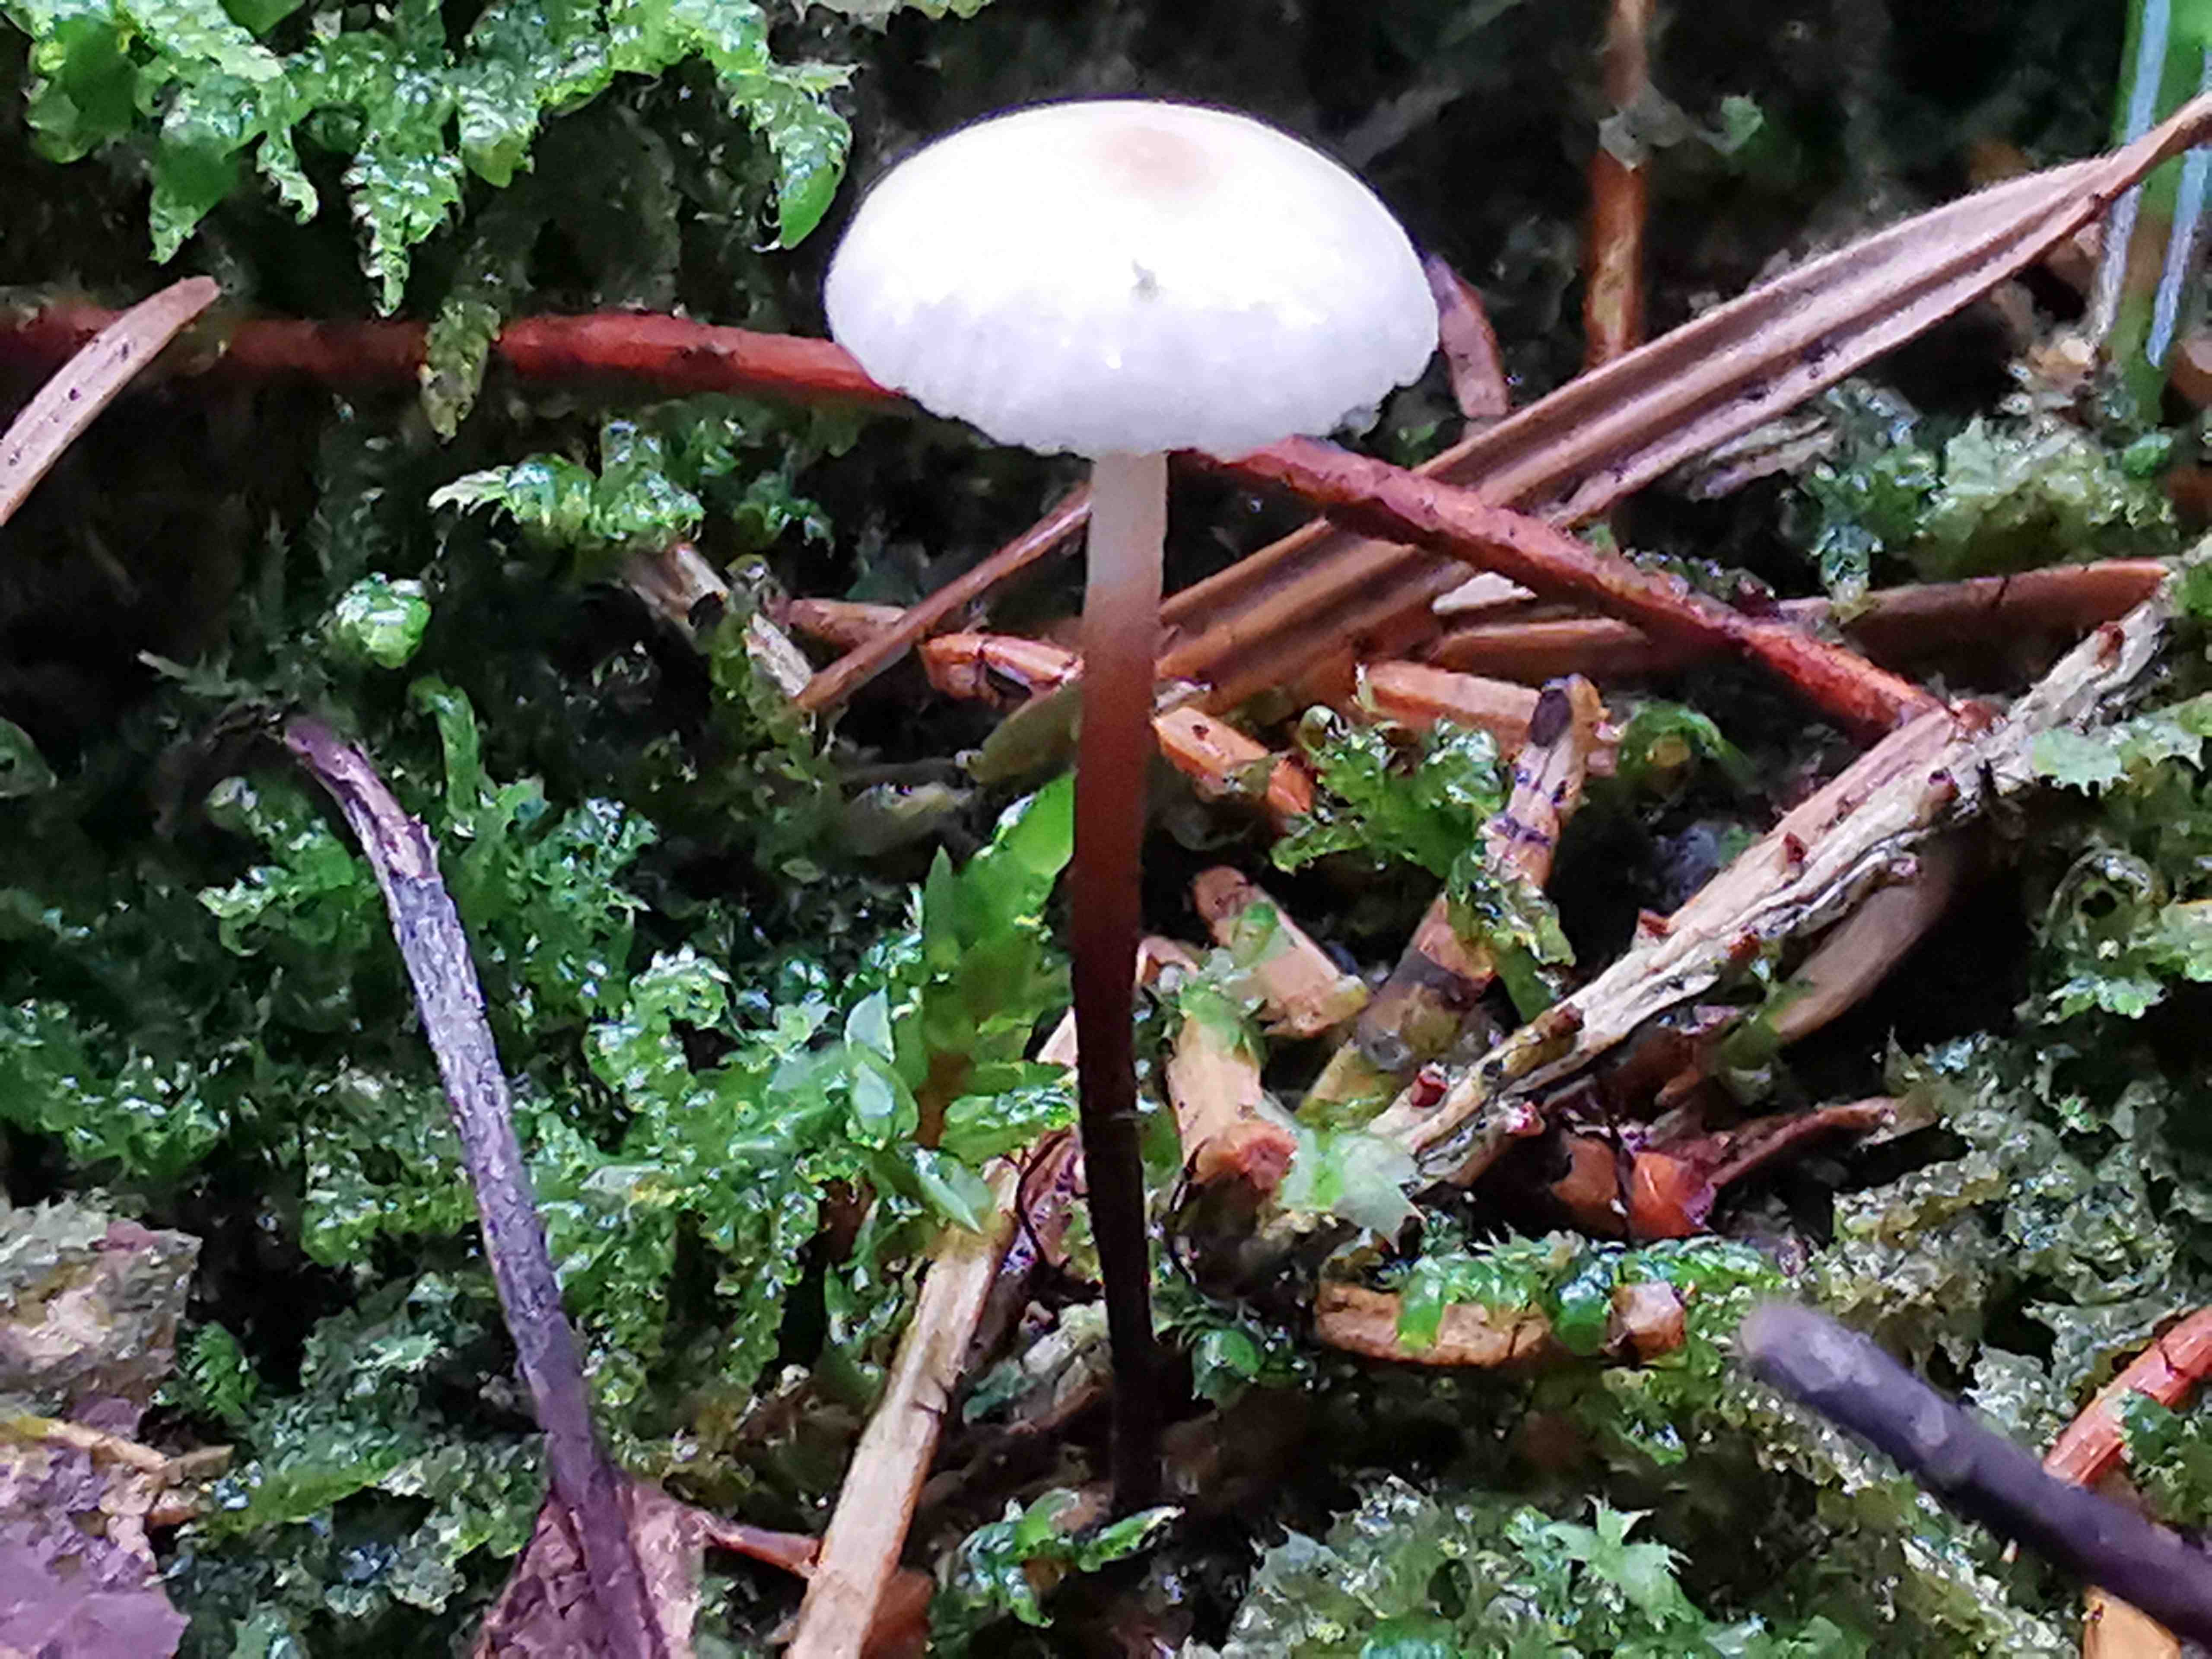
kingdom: Fungi
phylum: Basidiomycota
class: Agaricomycetes
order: Agaricales
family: Omphalotaceae
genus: Paragymnopus
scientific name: Paragymnopus perforans
